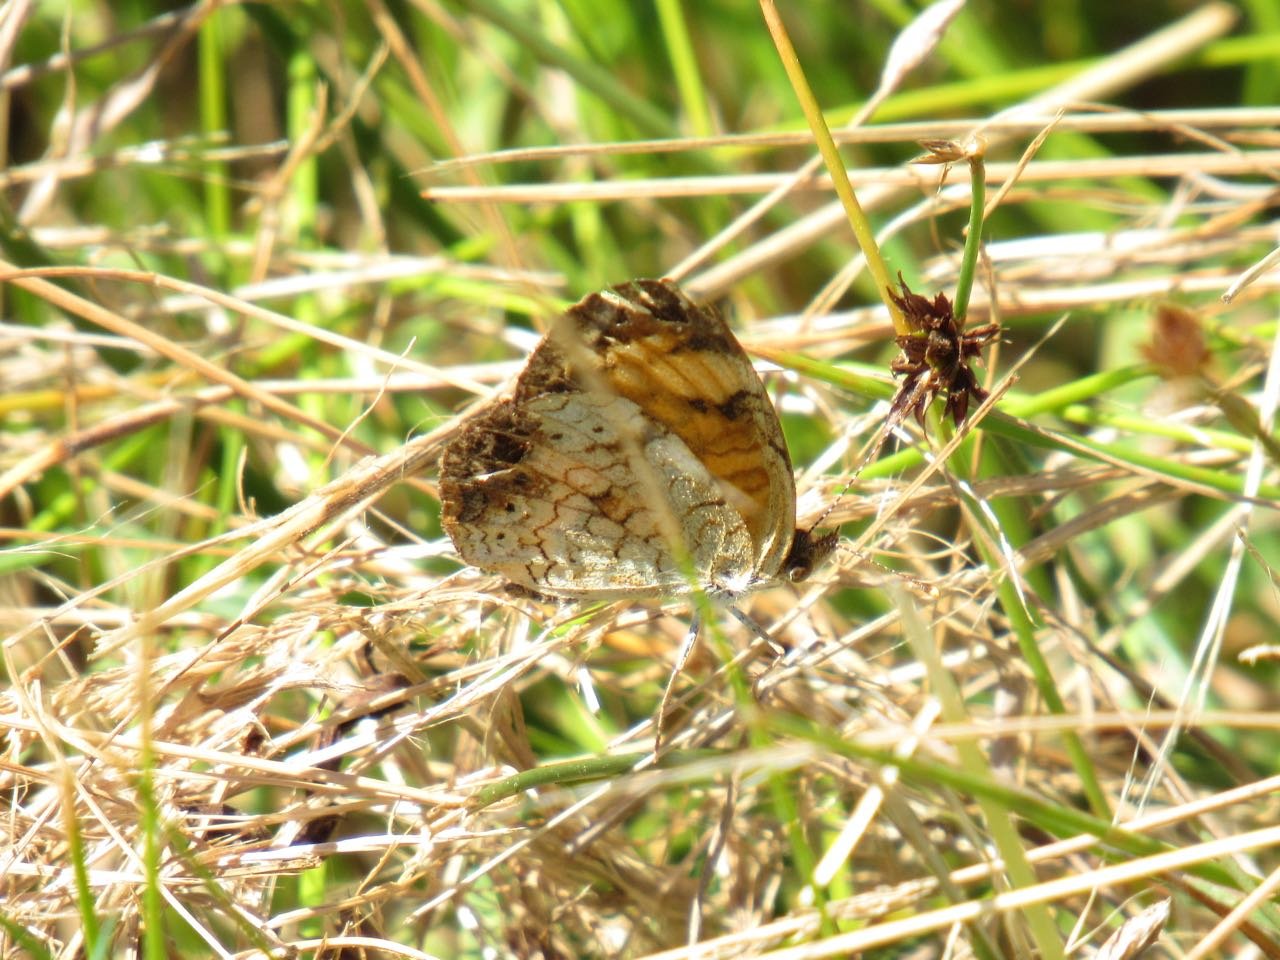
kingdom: Animalia
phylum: Arthropoda
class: Insecta
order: Lepidoptera
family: Nymphalidae
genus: Phyciodes
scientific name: Phyciodes
